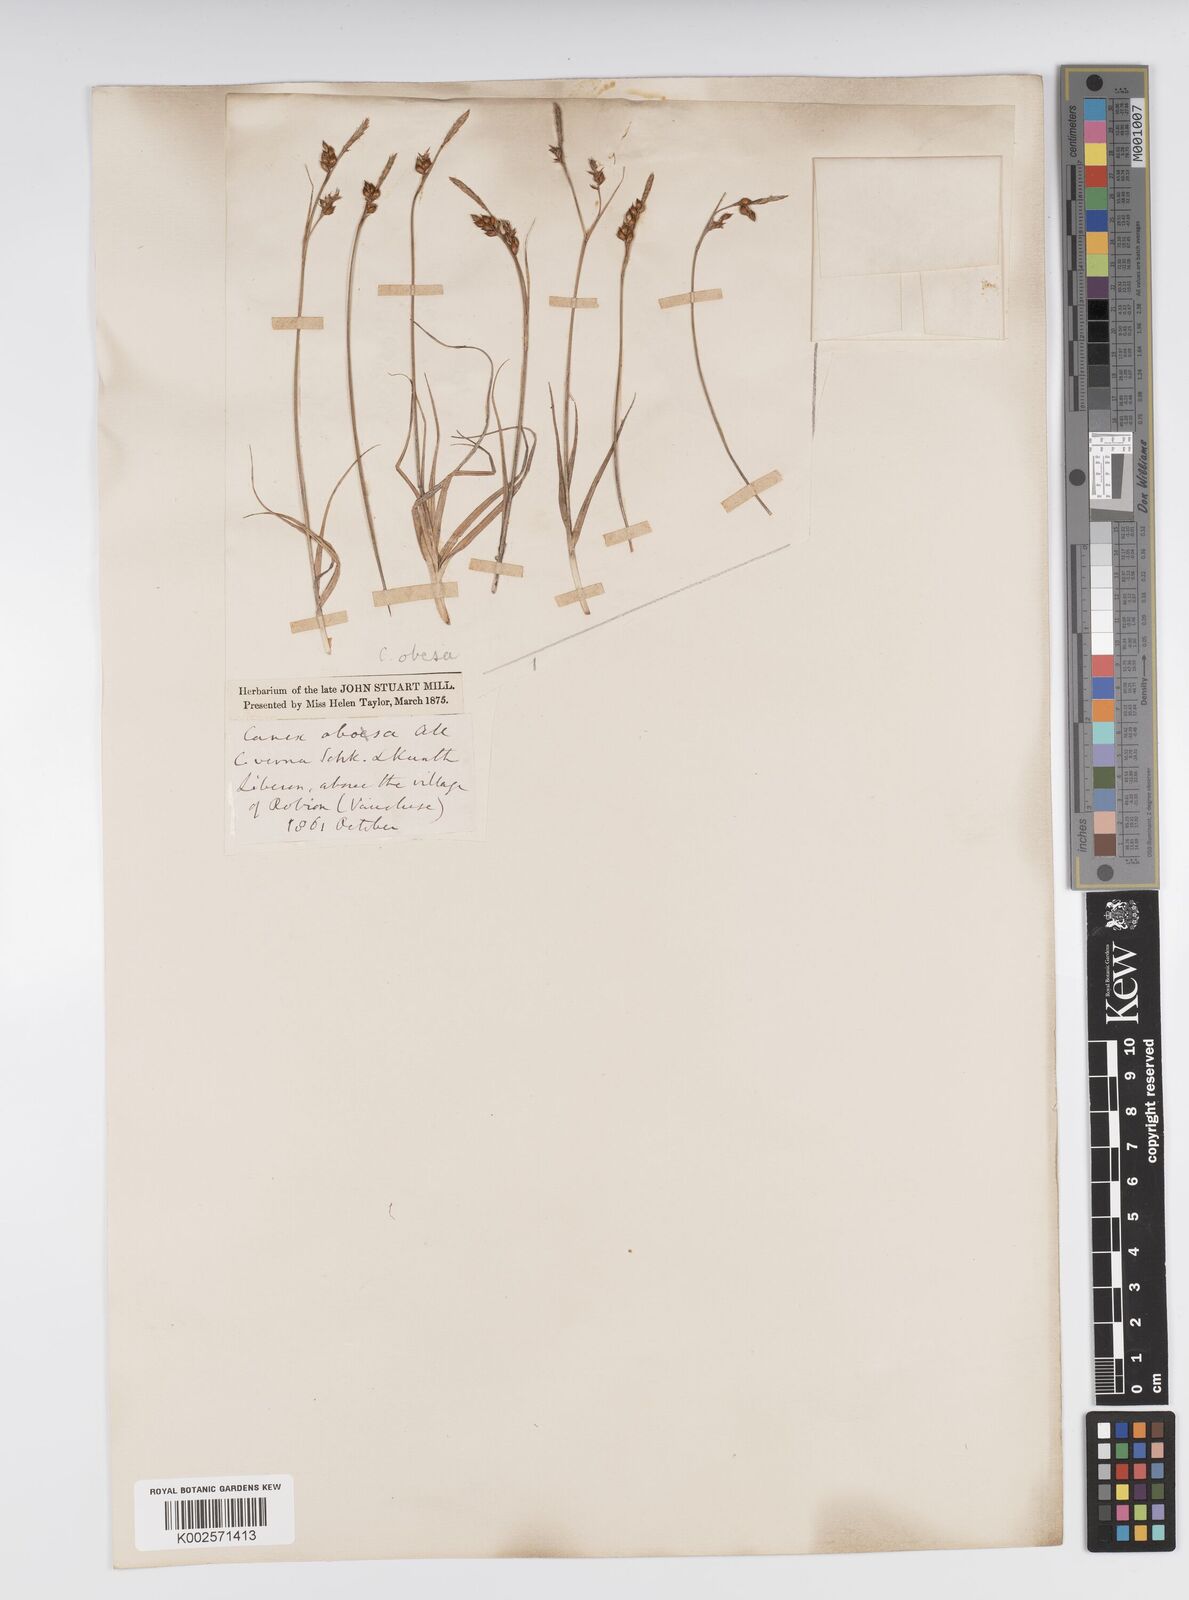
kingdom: Plantae
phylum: Tracheophyta
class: Liliopsida
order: Poales
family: Cyperaceae
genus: Carex
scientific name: Carex liparocarpos
